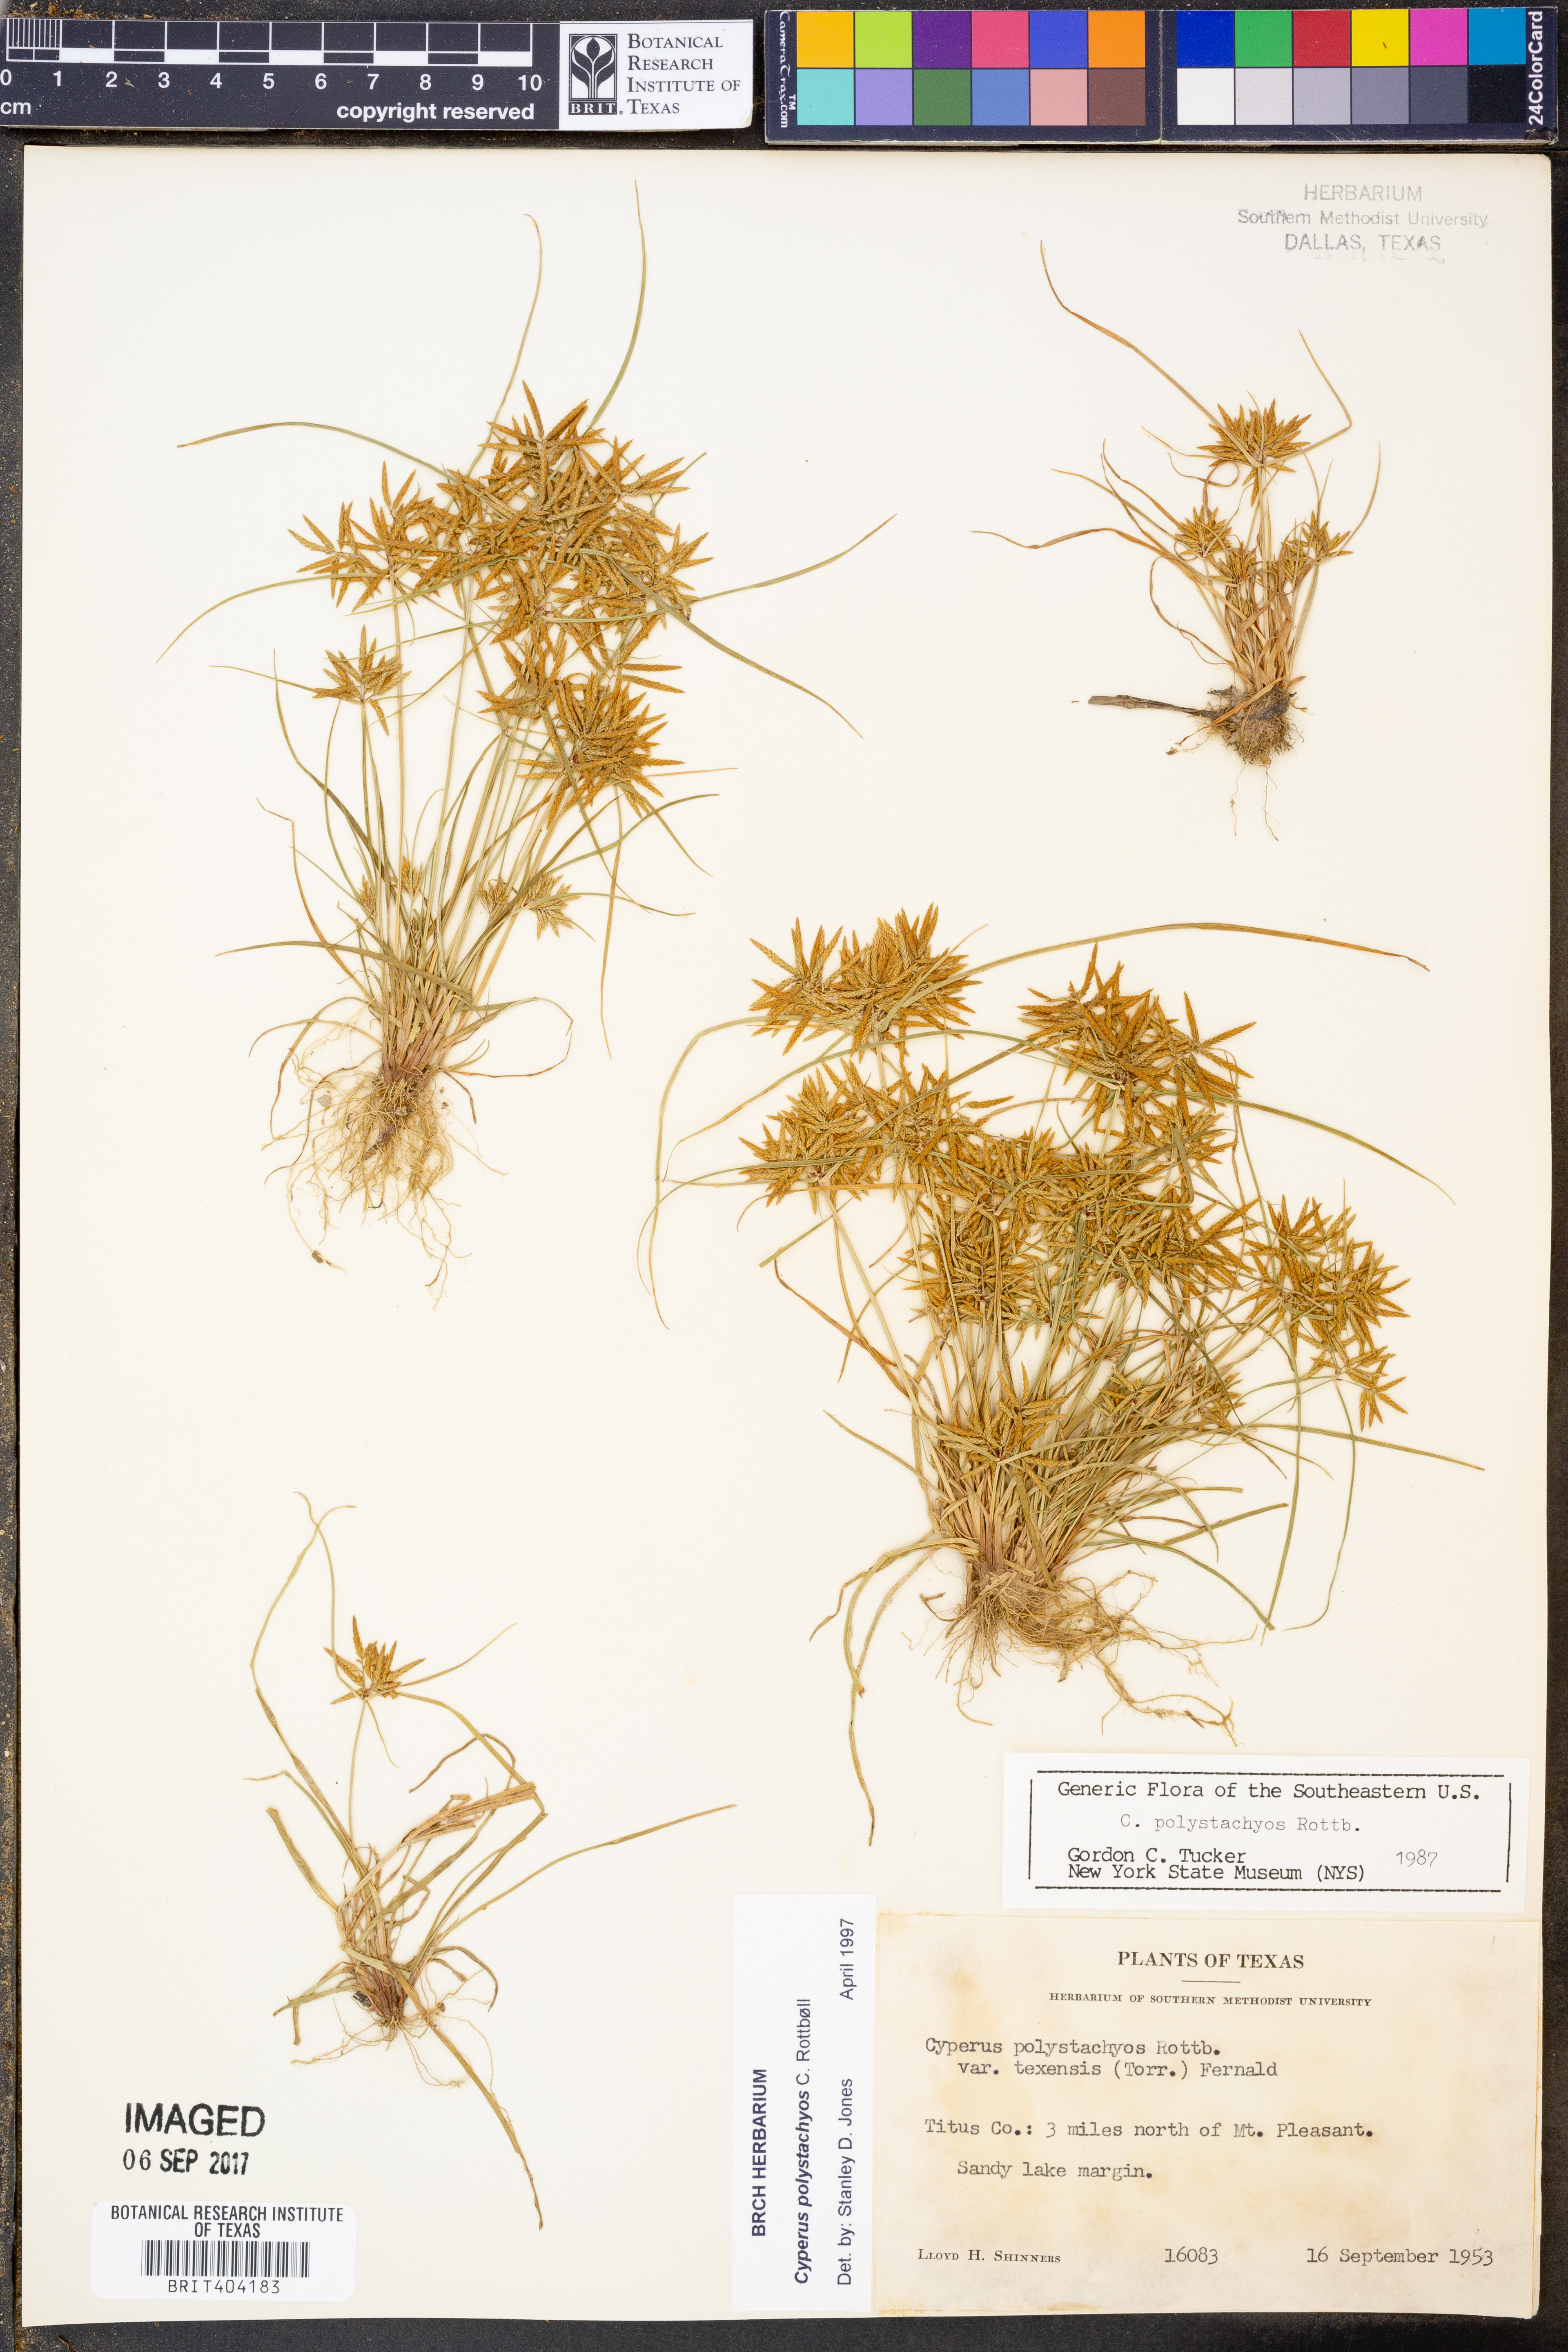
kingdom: Plantae
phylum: Tracheophyta
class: Liliopsida
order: Poales
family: Cyperaceae
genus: Cyperus
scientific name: Cyperus polystachyos
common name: Bunchy flat sedge
